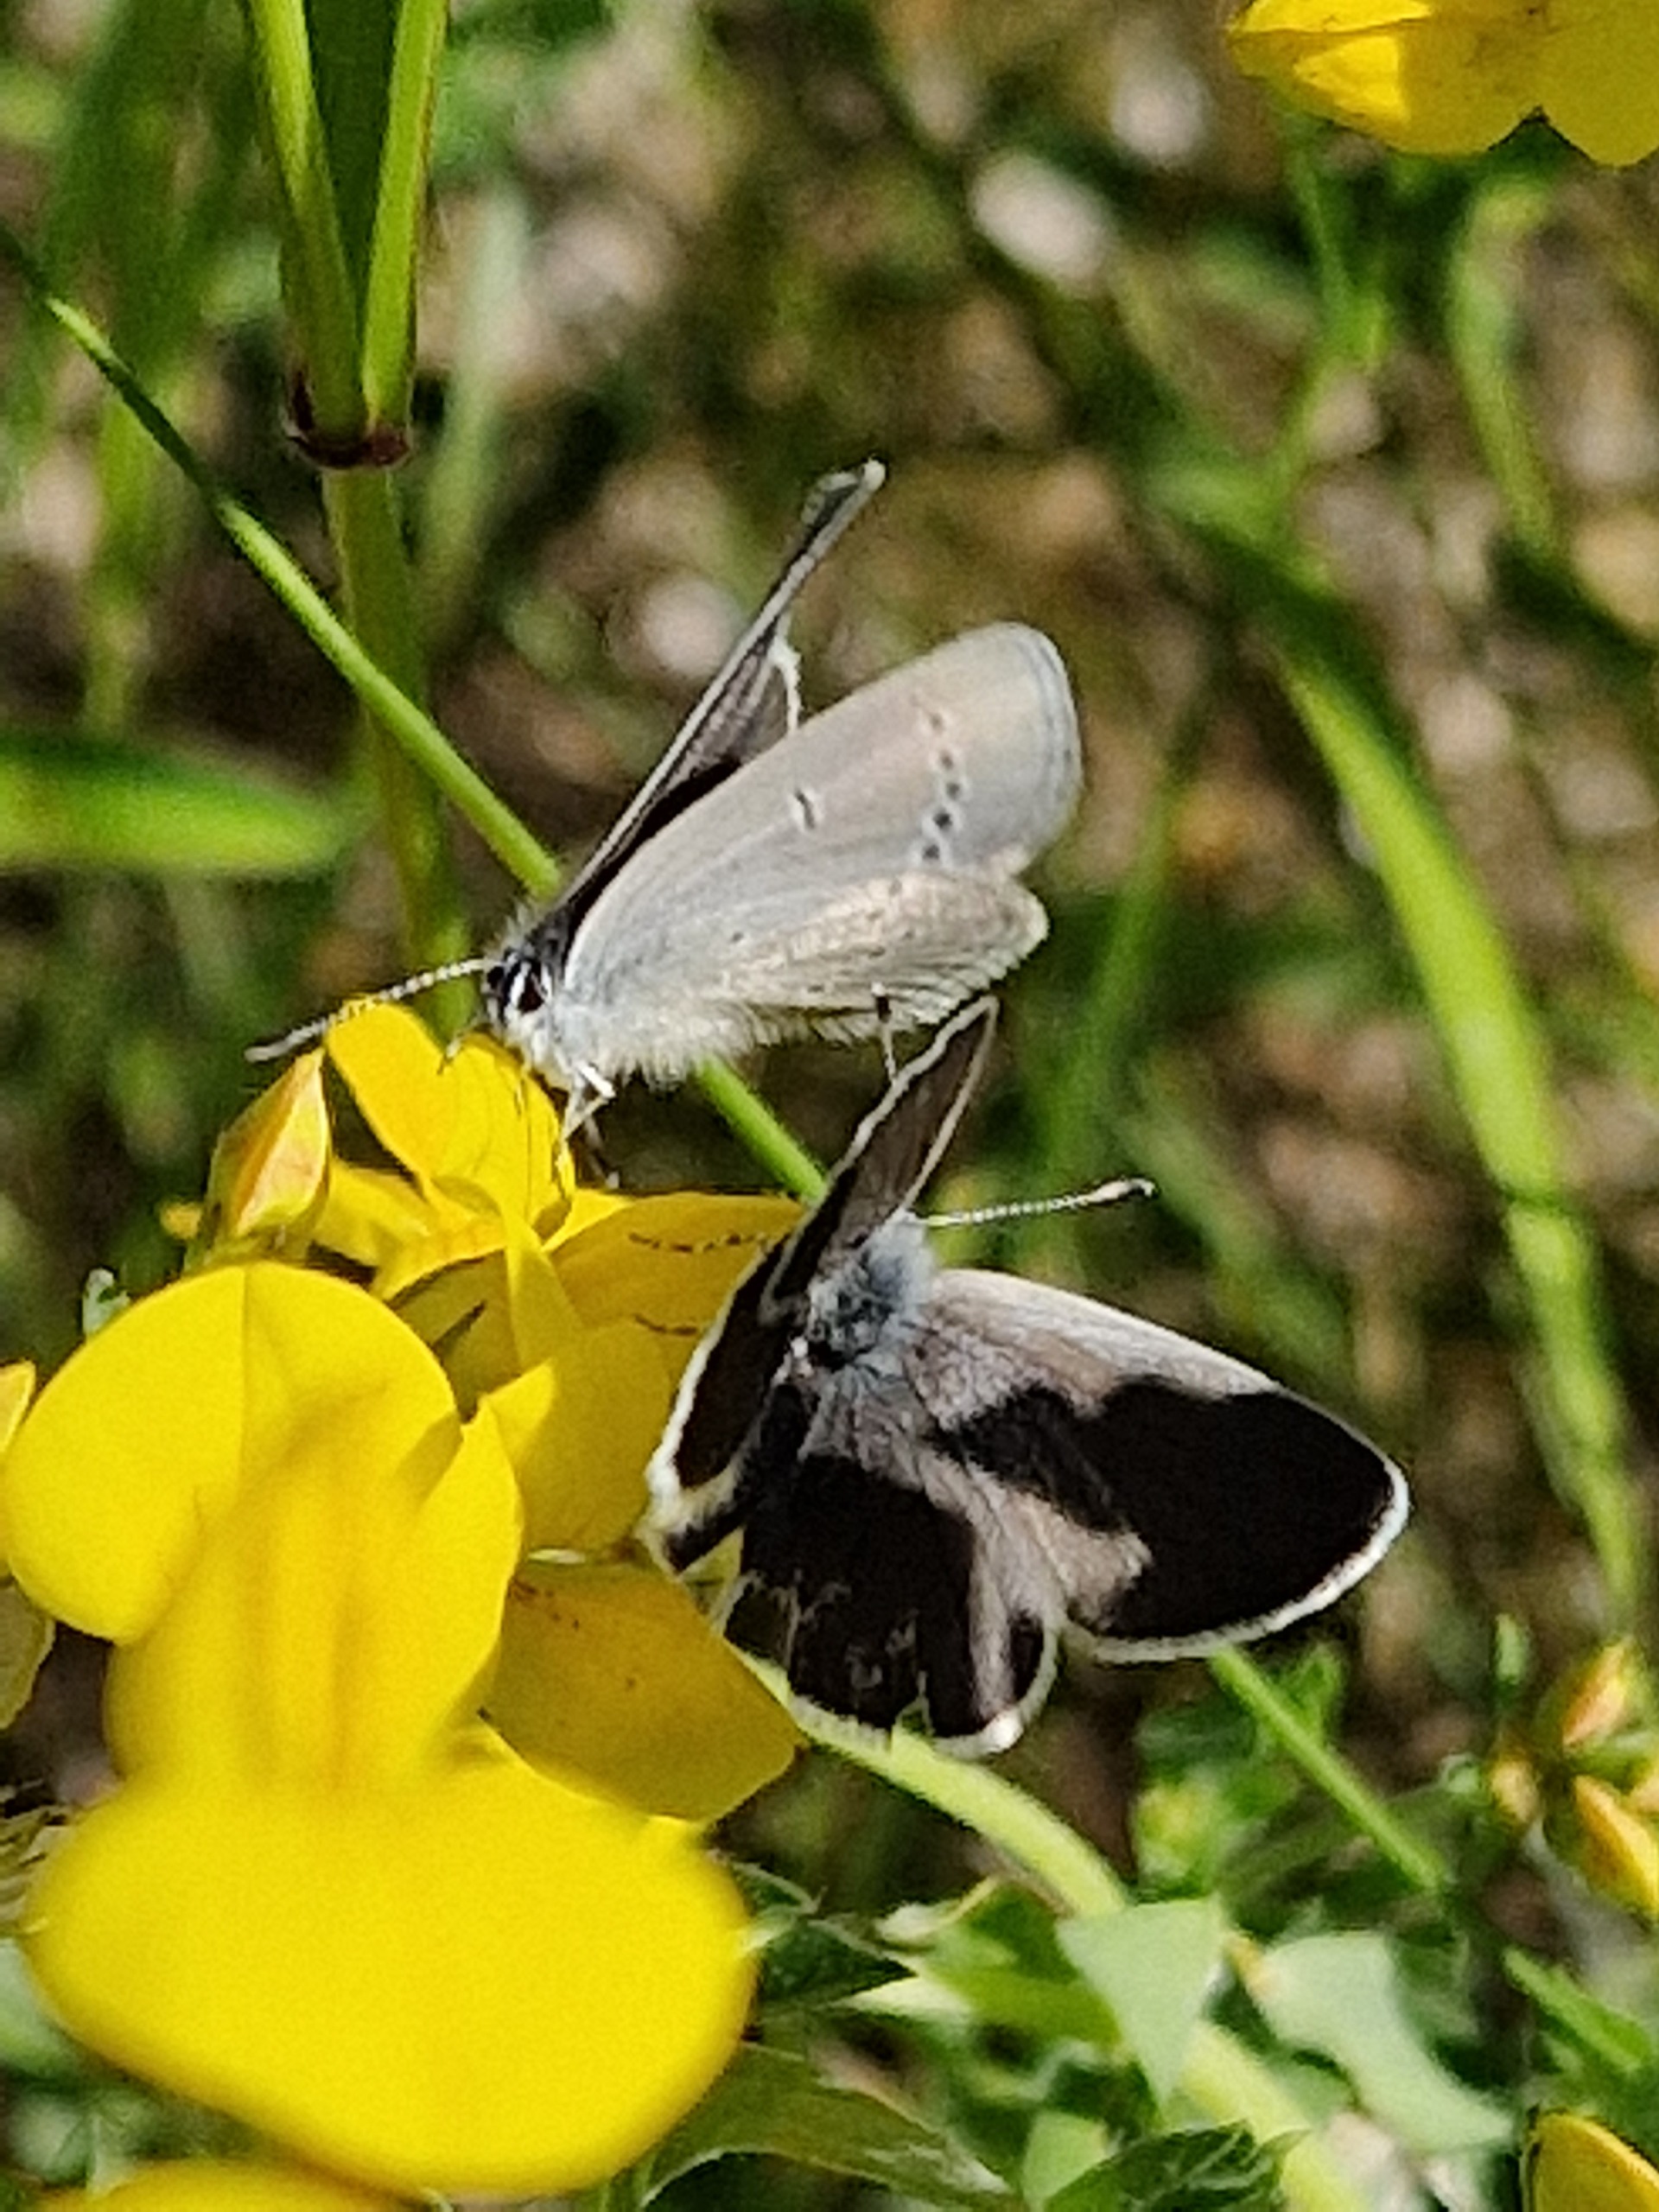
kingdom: Animalia
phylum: Arthropoda
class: Insecta
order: Lepidoptera
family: Lycaenidae
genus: Cupido
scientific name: Cupido minimus
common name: Dværgblåfugl
